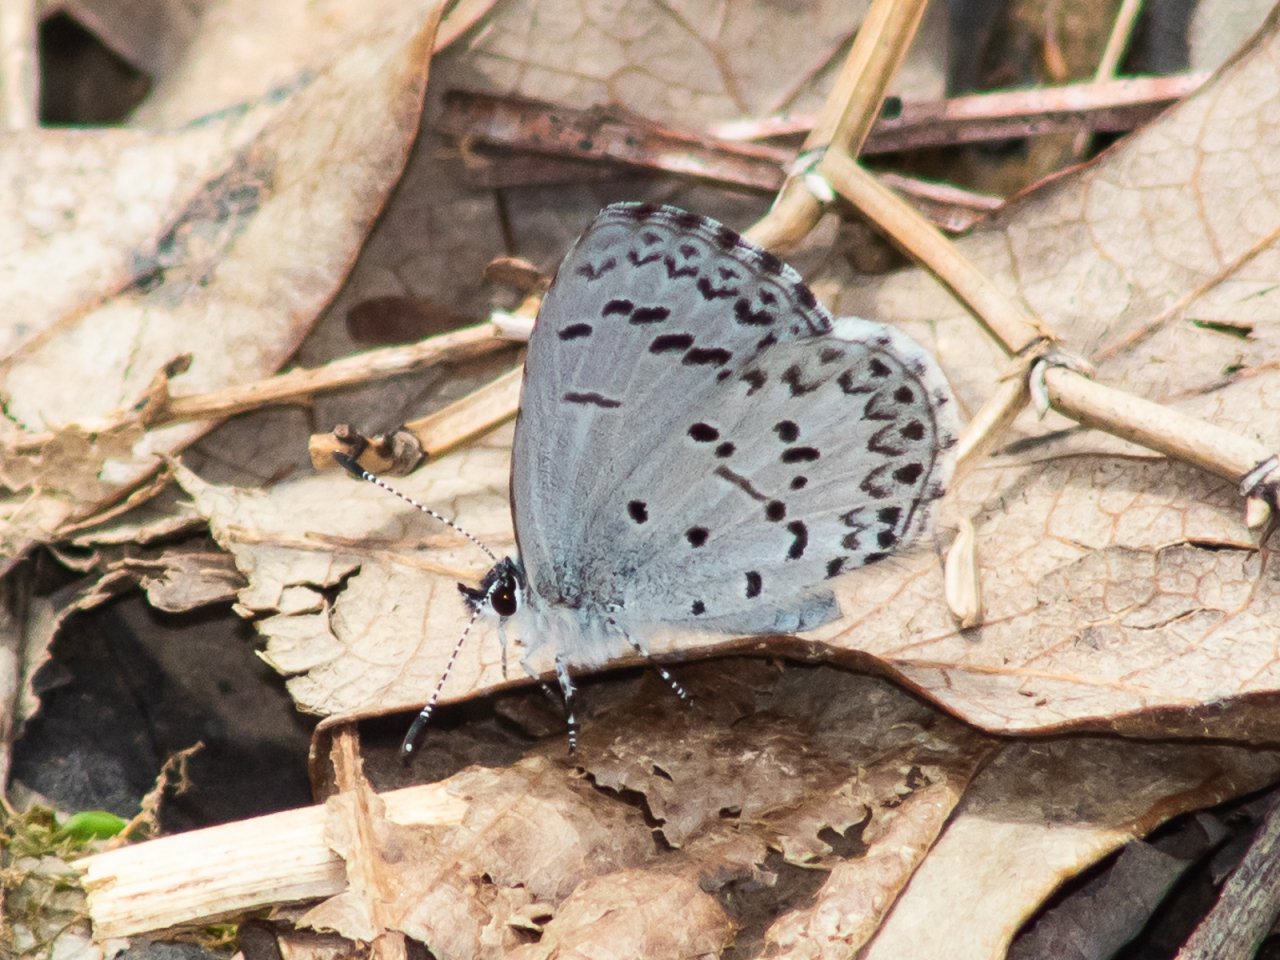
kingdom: Animalia
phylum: Arthropoda
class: Insecta
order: Lepidoptera
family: Lycaenidae
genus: Celastrina
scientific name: Celastrina
